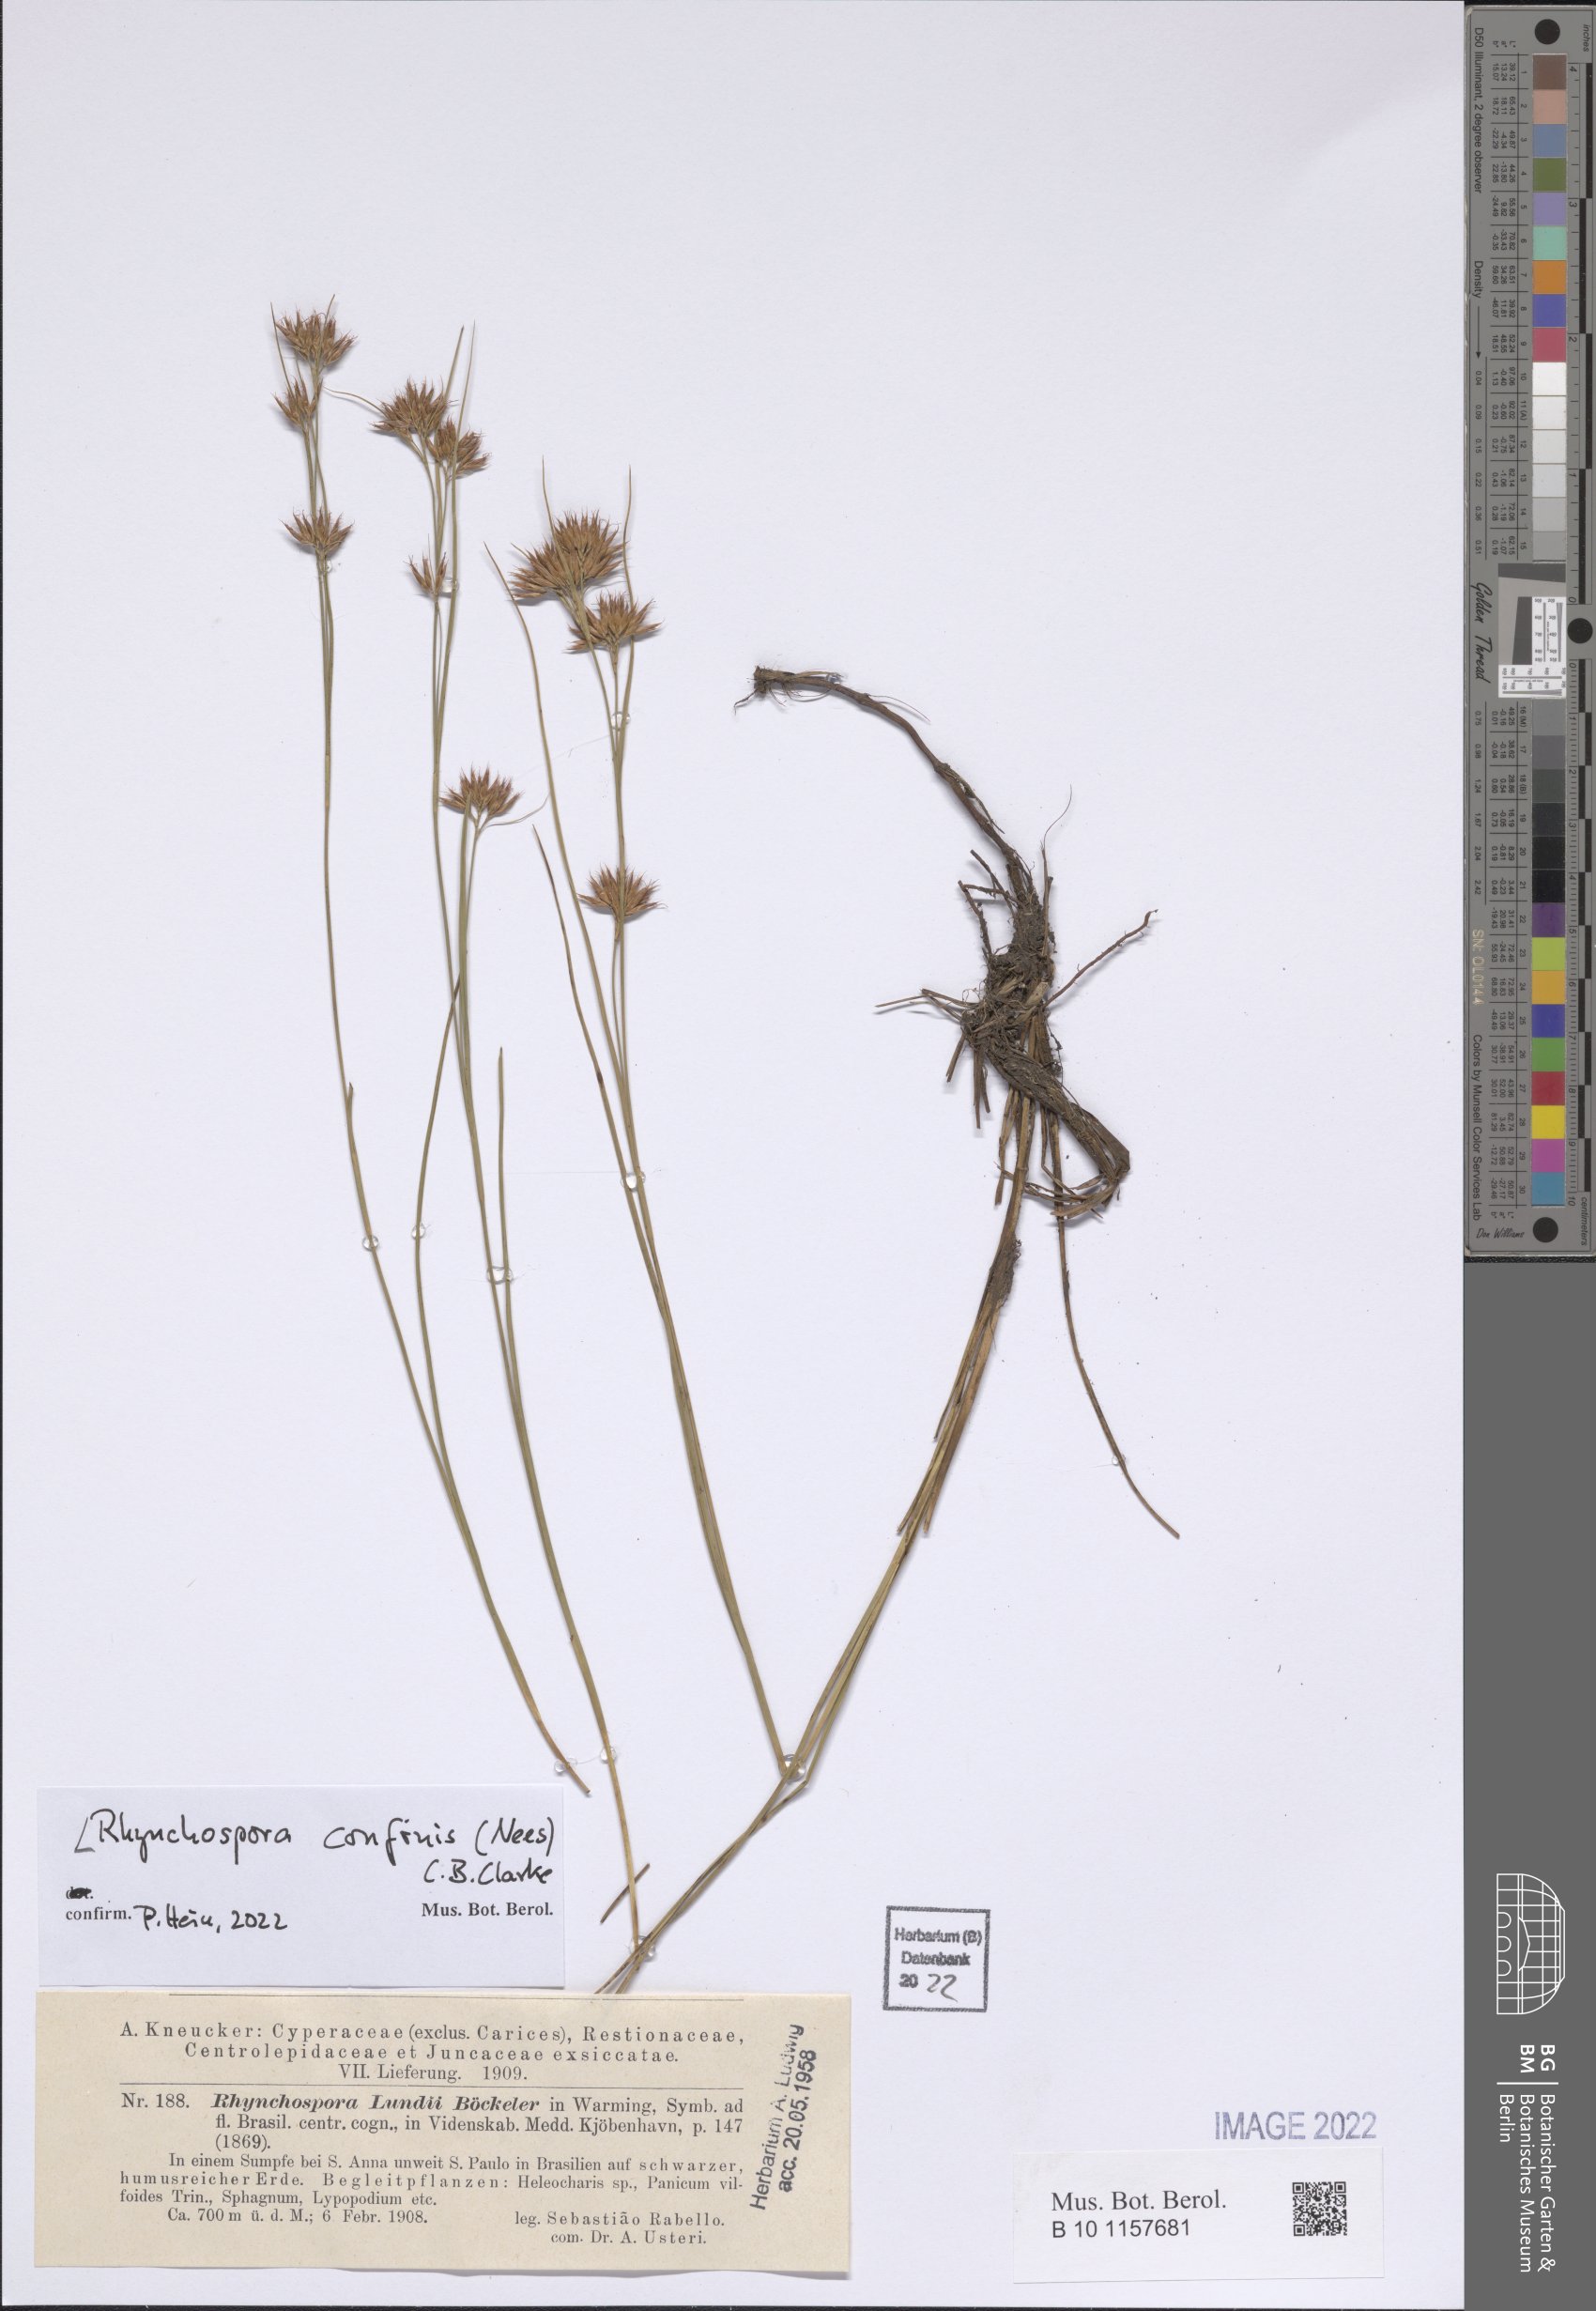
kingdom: Plantae
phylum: Tracheophyta
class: Liliopsida
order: Poales
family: Cyperaceae
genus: Rhynchospora
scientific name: Rhynchospora confinis
